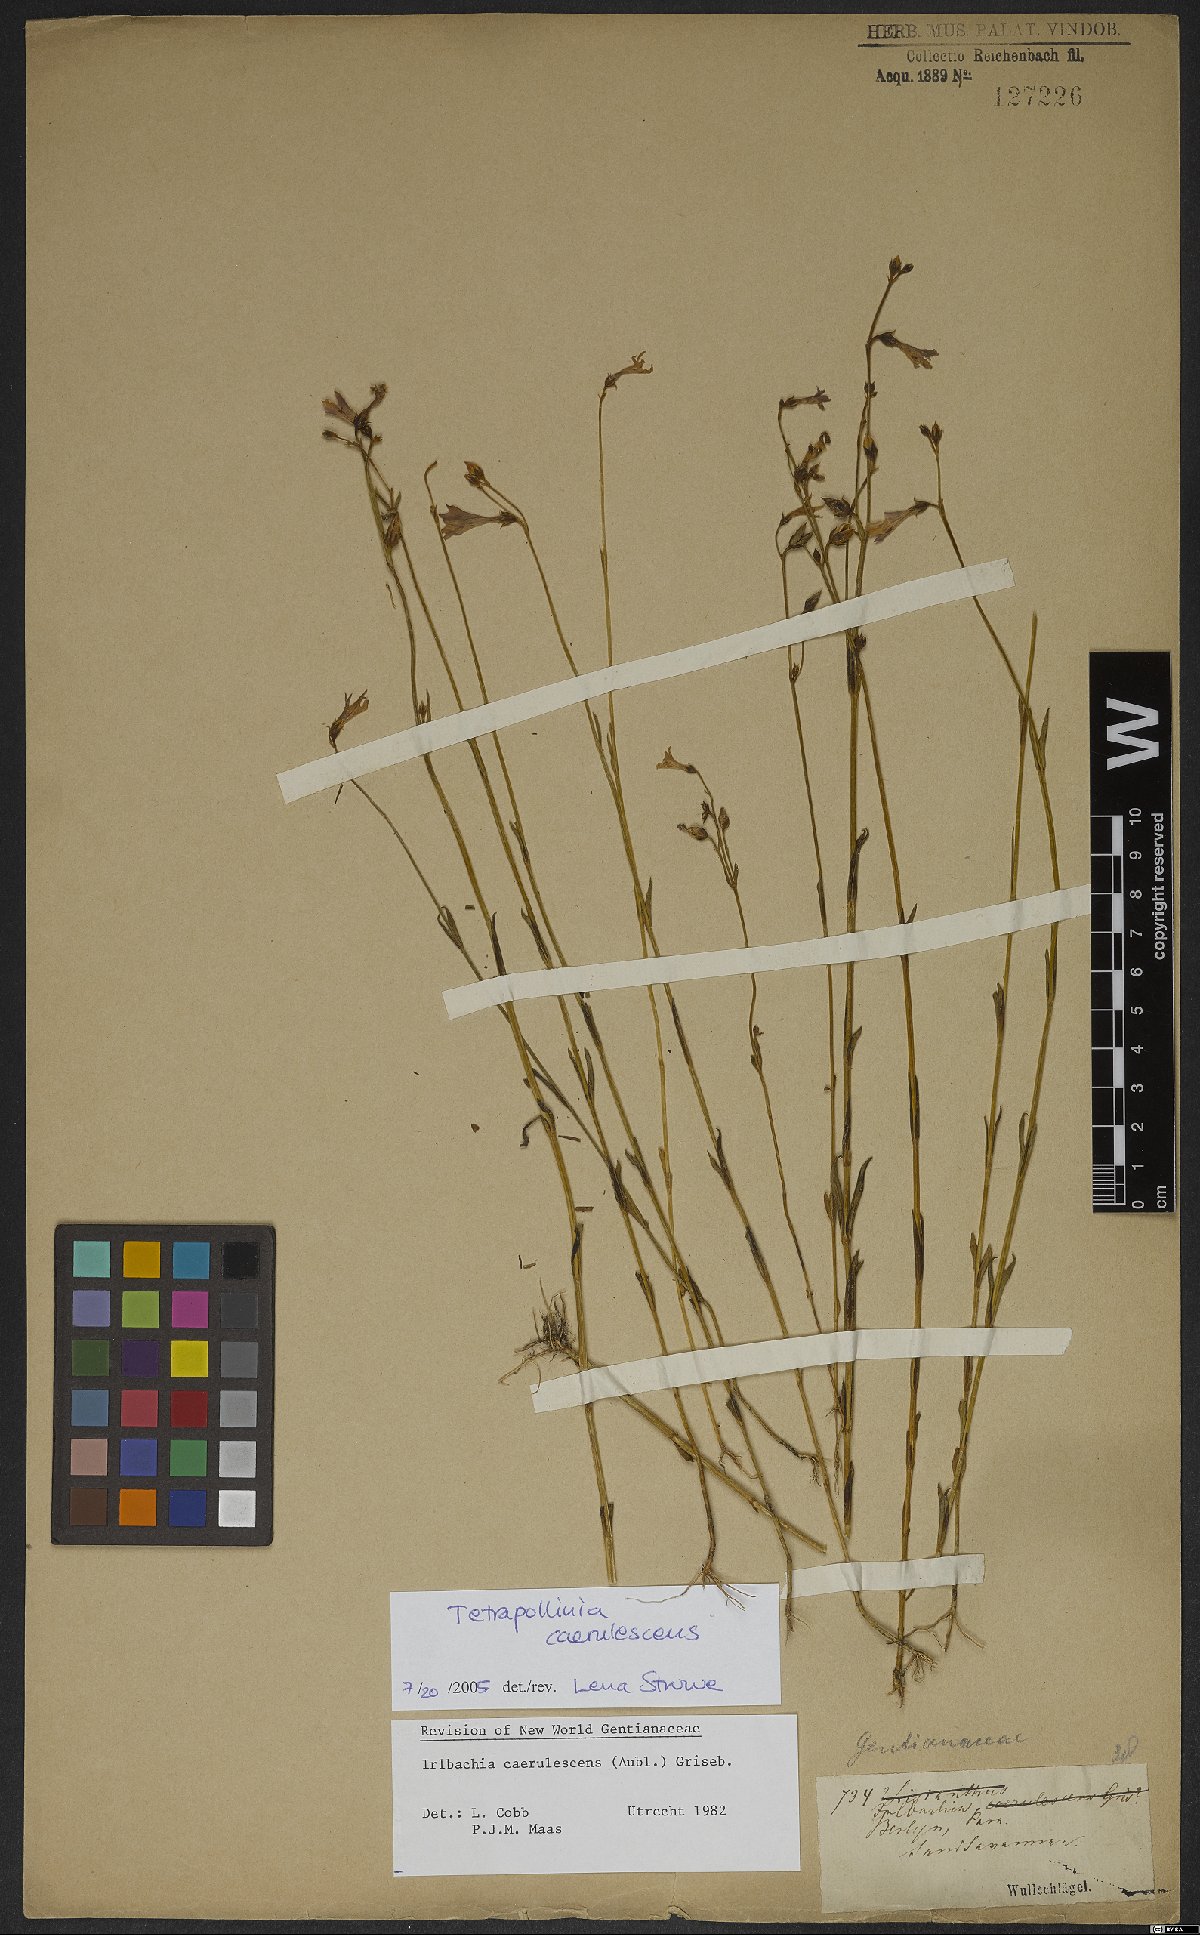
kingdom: Plantae
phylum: Tracheophyta
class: Magnoliopsida
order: Gentianales
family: Gentianaceae
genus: Tetrapollinia
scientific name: Tetrapollinia caerulescens
